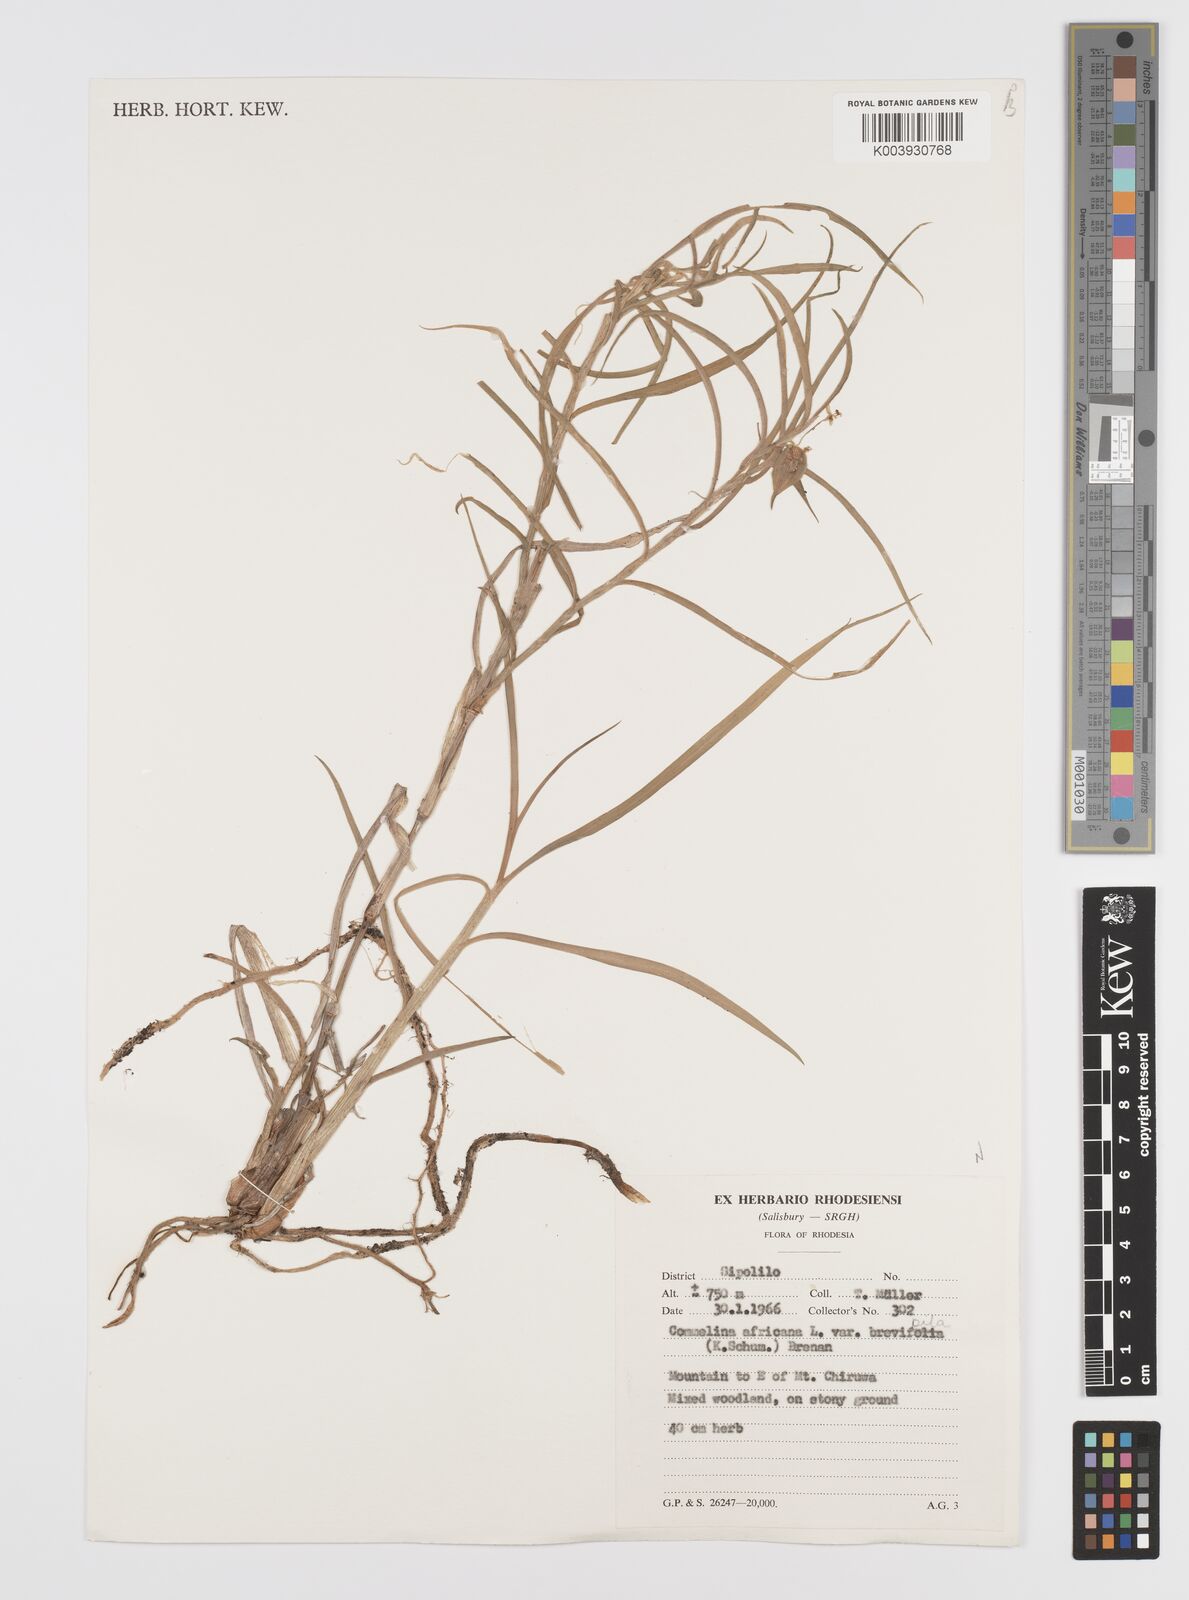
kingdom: Plantae
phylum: Tracheophyta
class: Liliopsida
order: Commelinales
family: Commelinaceae
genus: Commelina
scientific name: Commelina africana
